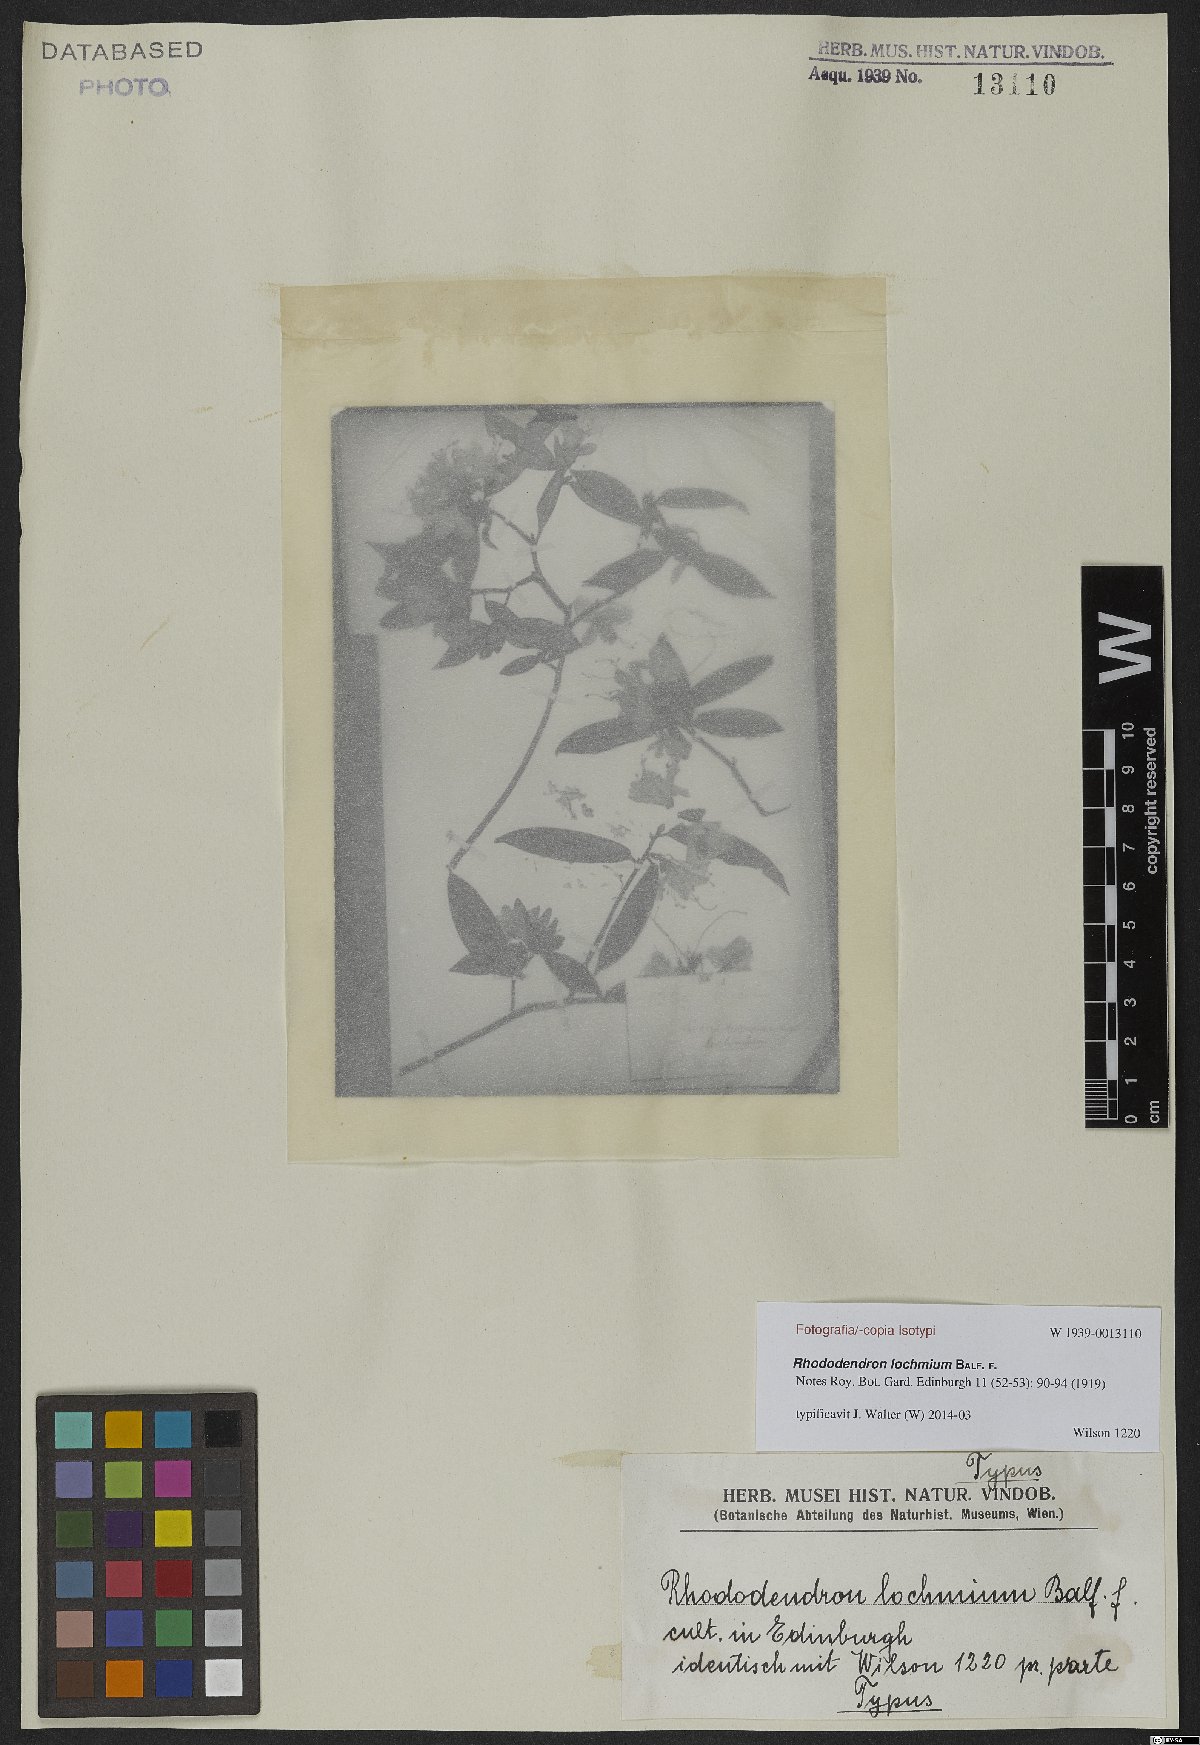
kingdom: Plantae
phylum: Tracheophyta
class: Magnoliopsida
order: Ericales
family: Ericaceae
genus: Rhododendron
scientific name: Rhododendron lochmium
